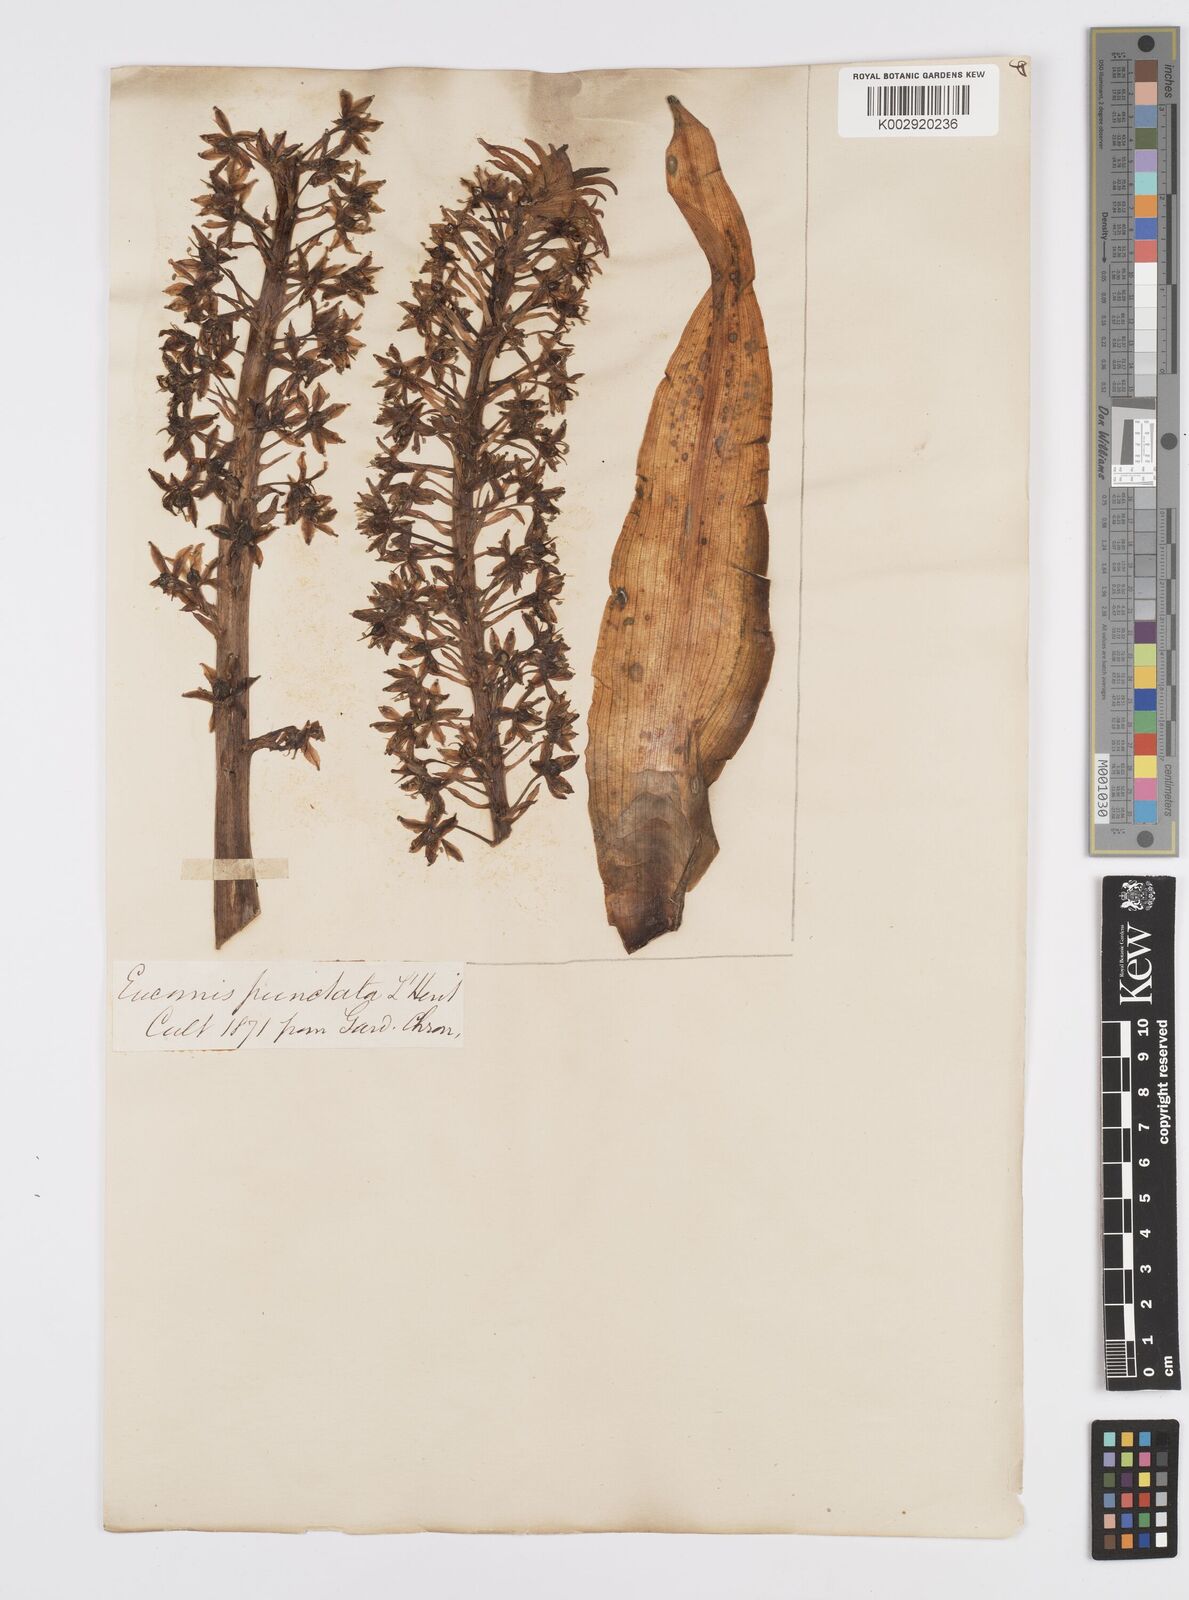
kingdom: Plantae
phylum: Tracheophyta
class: Liliopsida
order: Asparagales
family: Asparagaceae
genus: Eucomis
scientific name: Eucomis comosa
